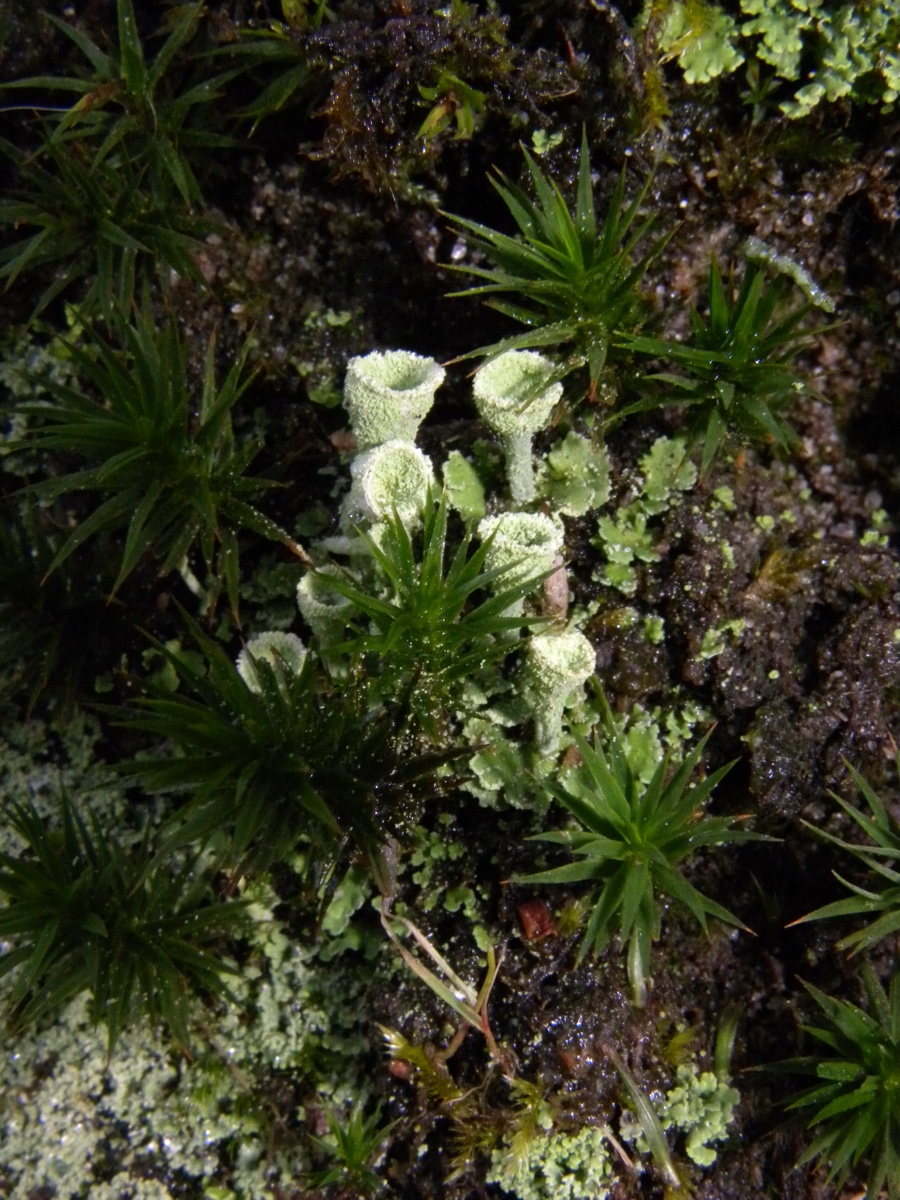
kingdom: Fungi
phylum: Ascomycota
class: Lecanoromycetes
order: Lecanorales
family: Cladoniaceae
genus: Cladonia
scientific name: Cladonia fimbriata
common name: bleggrøn bægerlav
